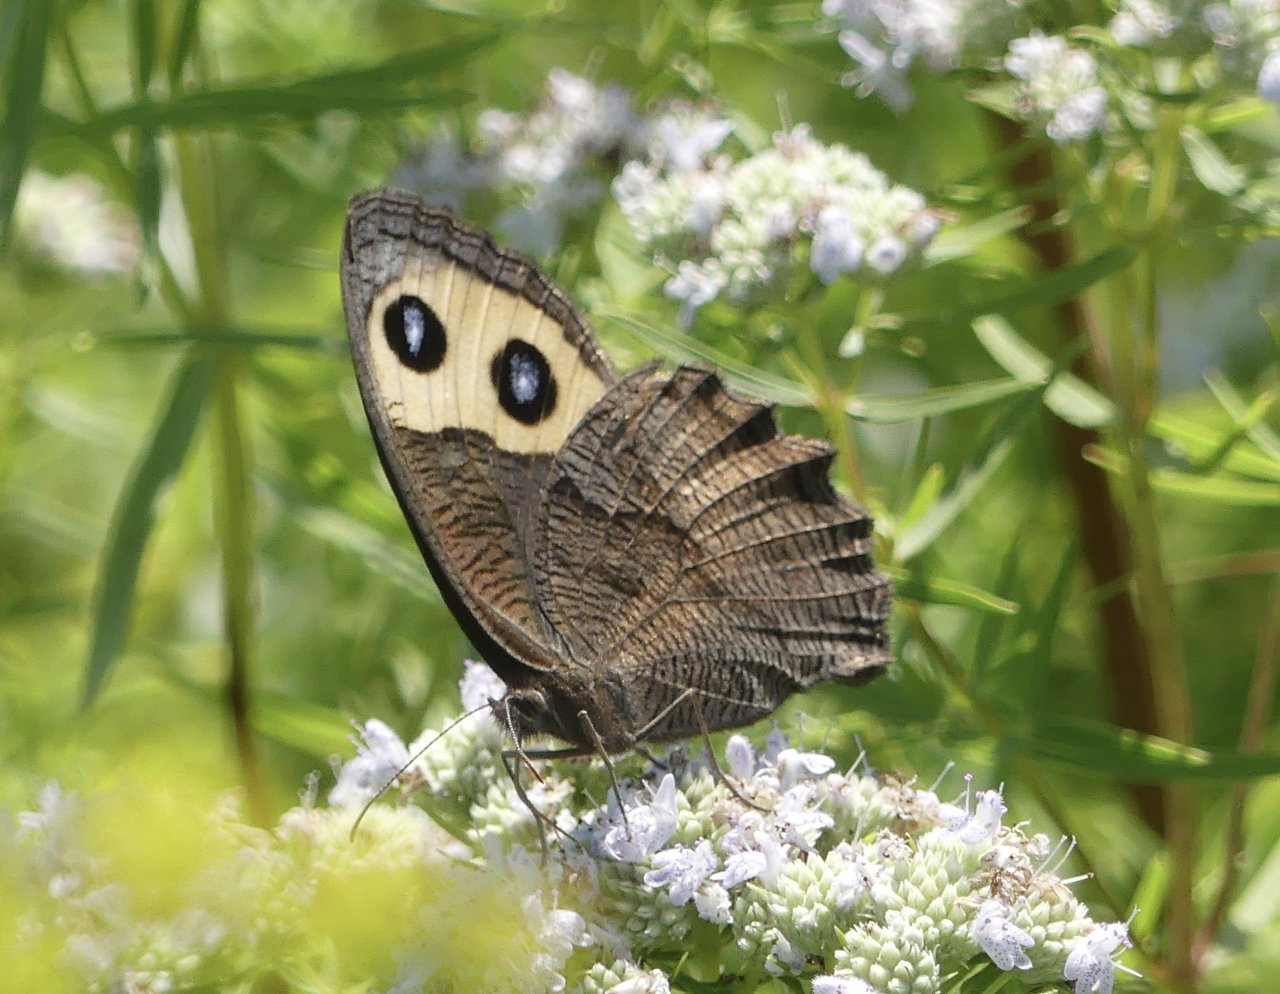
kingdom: Animalia
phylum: Arthropoda
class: Insecta
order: Lepidoptera
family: Nymphalidae
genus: Cercyonis
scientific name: Cercyonis pegala
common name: Common Wood-Nymph
